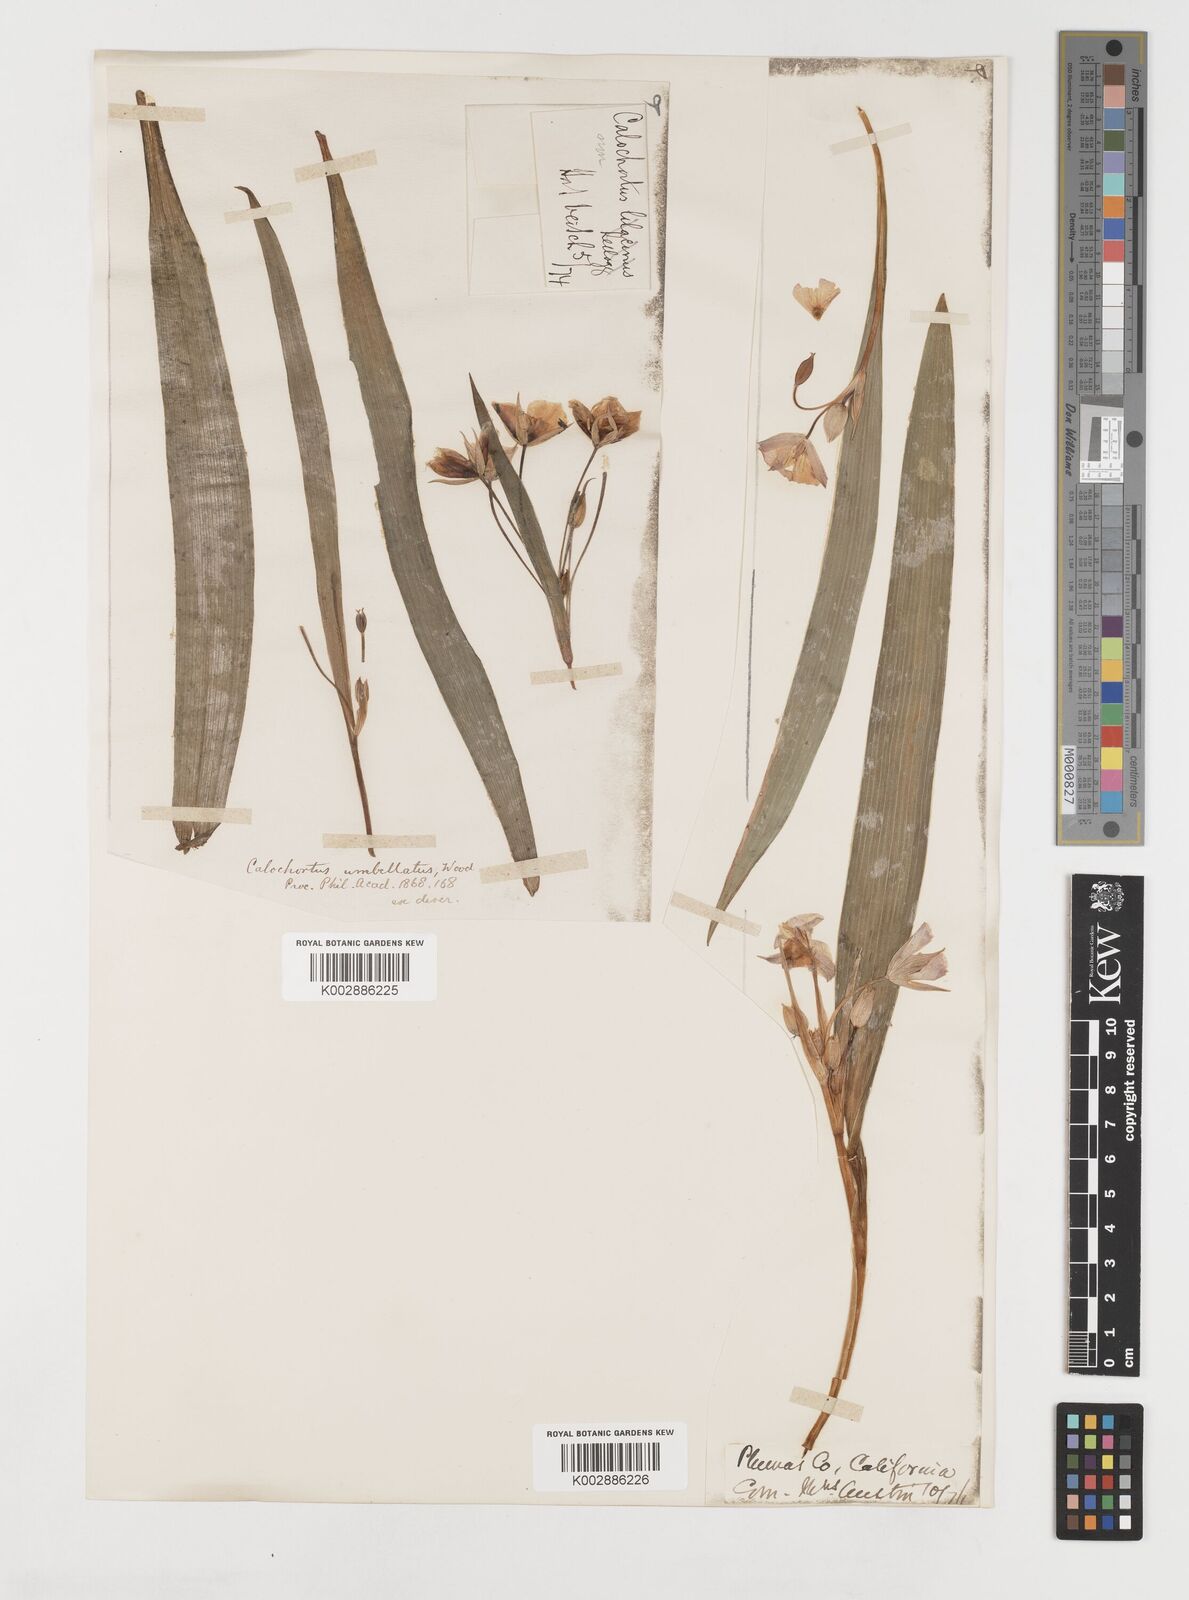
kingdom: Plantae
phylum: Tracheophyta
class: Liliopsida
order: Liliales
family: Liliaceae
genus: Calochortus
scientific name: Calochortus umbellatus
